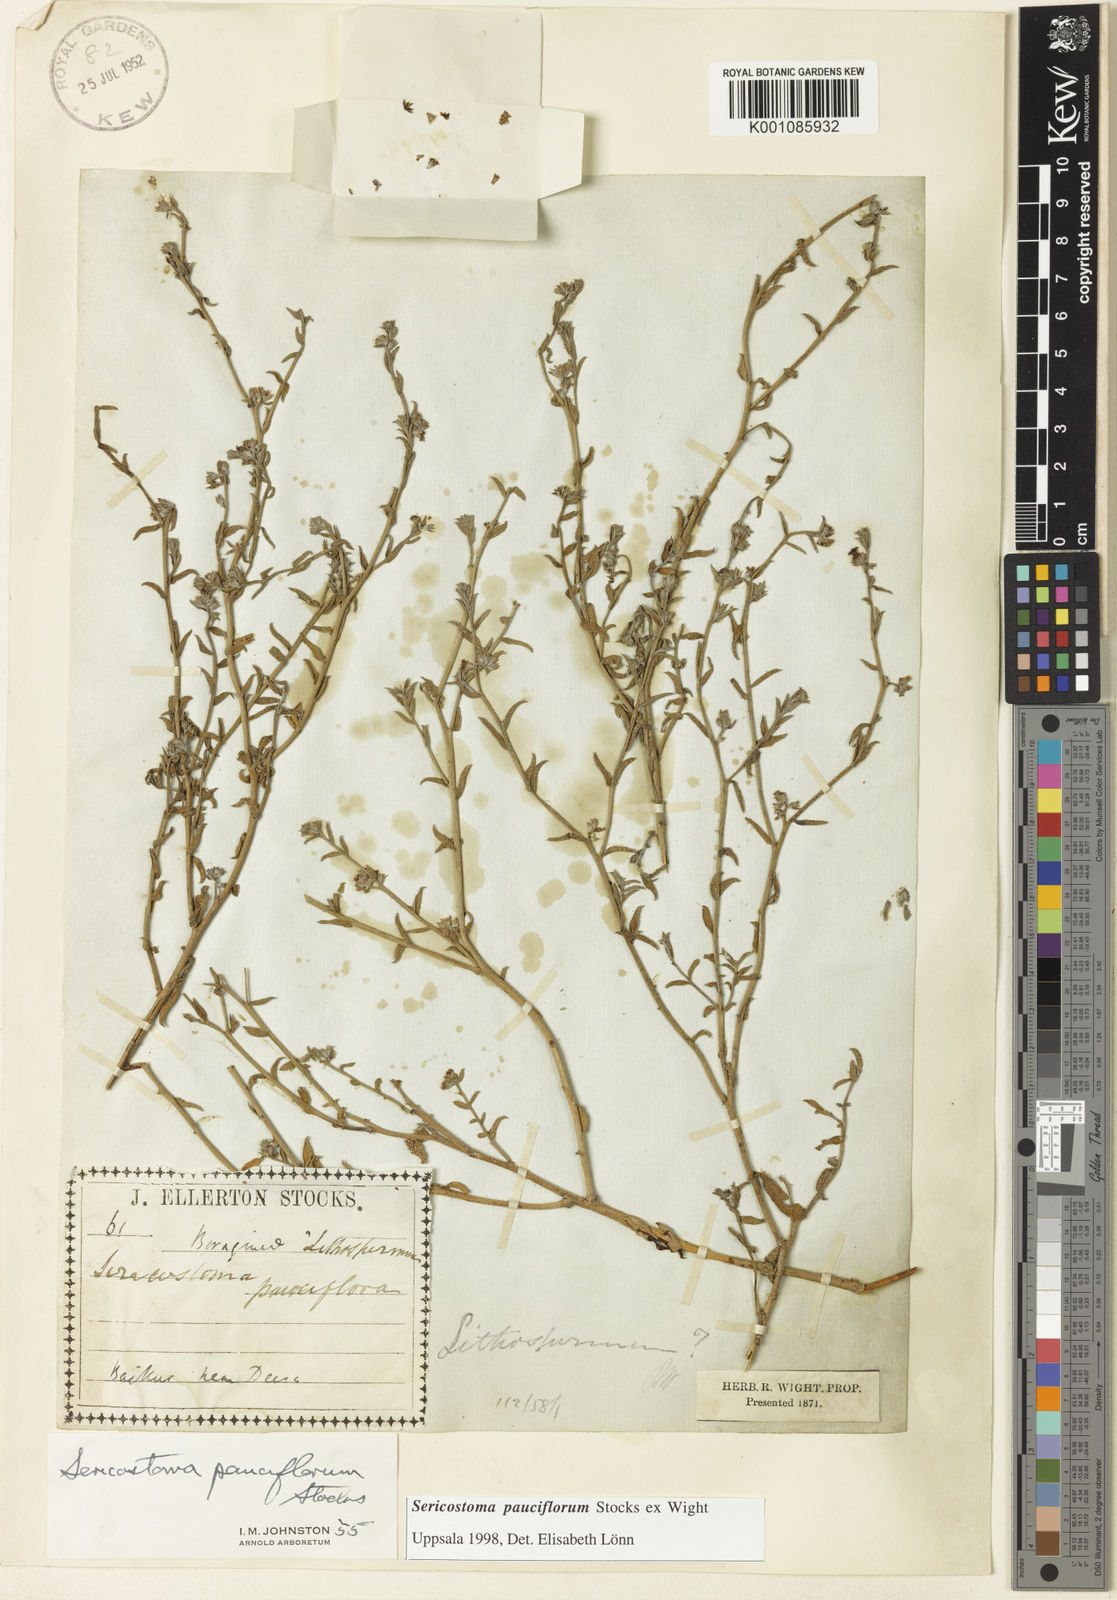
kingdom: Plantae
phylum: Tracheophyta
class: Magnoliopsida
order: Boraginales
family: Boraginaceae
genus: Echiochilon
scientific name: Echiochilon pauciflorum
